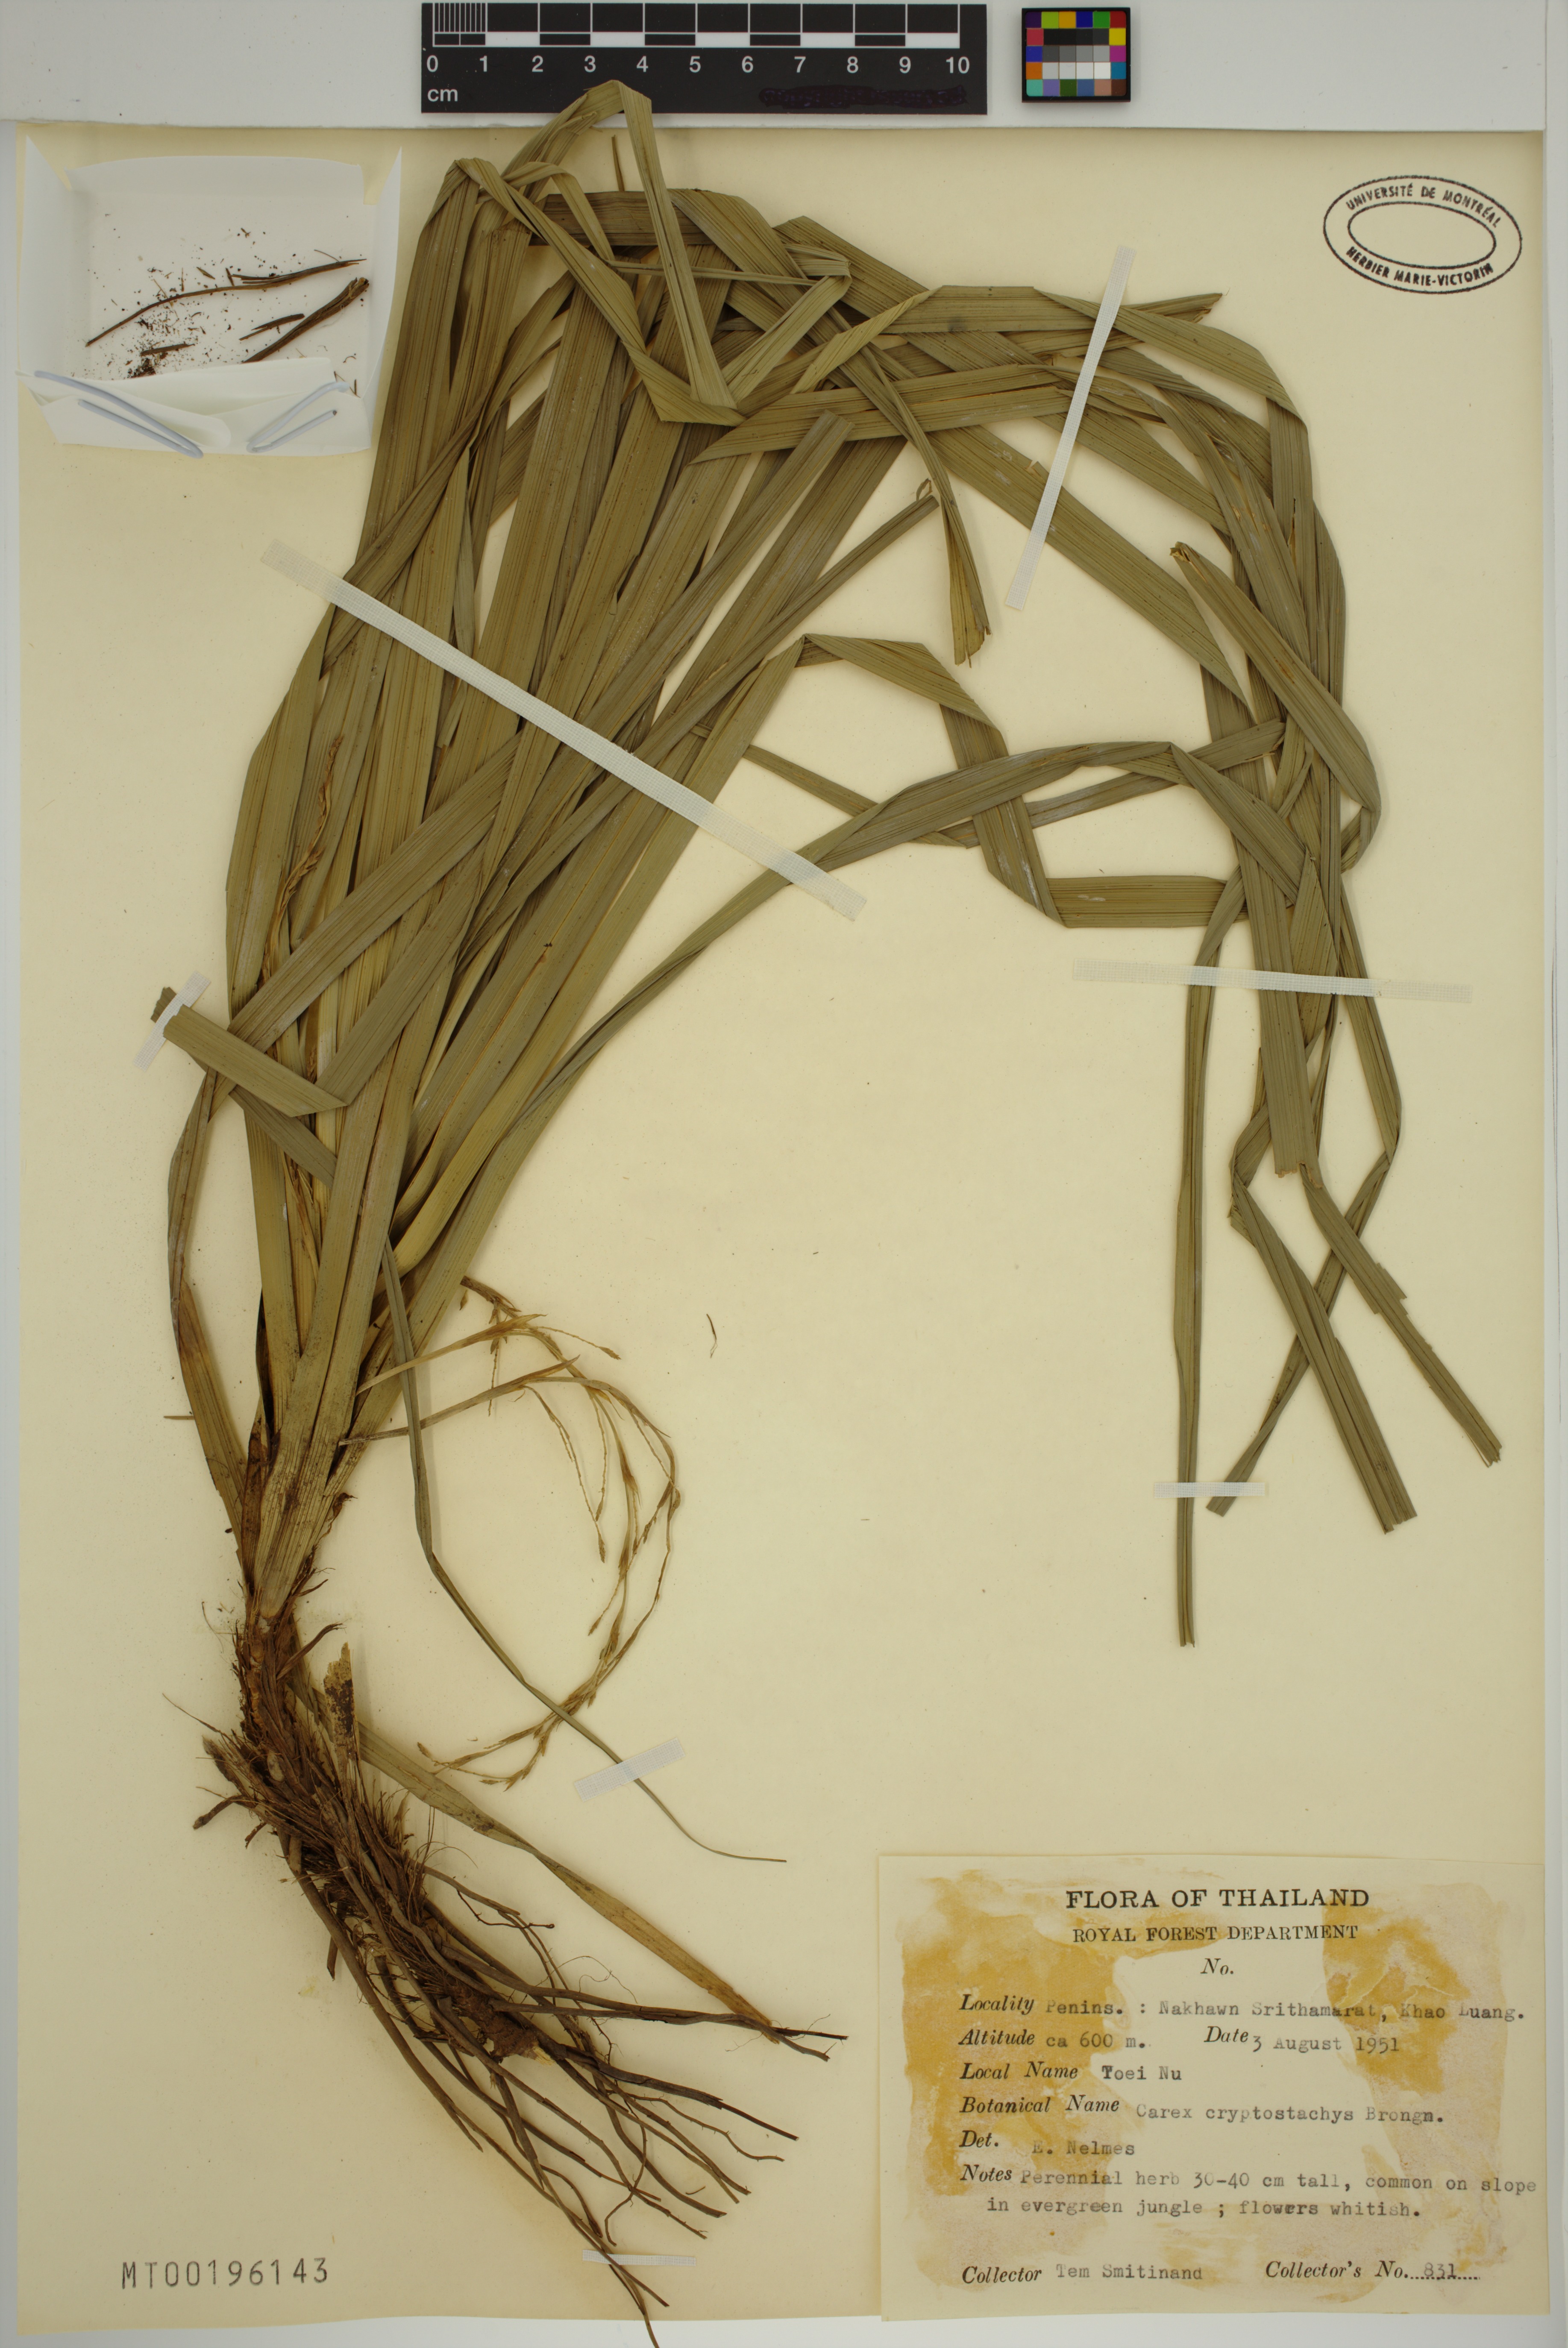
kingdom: Plantae
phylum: Tracheophyta
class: Liliopsida
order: Poales
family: Cyperaceae
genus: Carex
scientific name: Carex cryptostachys
